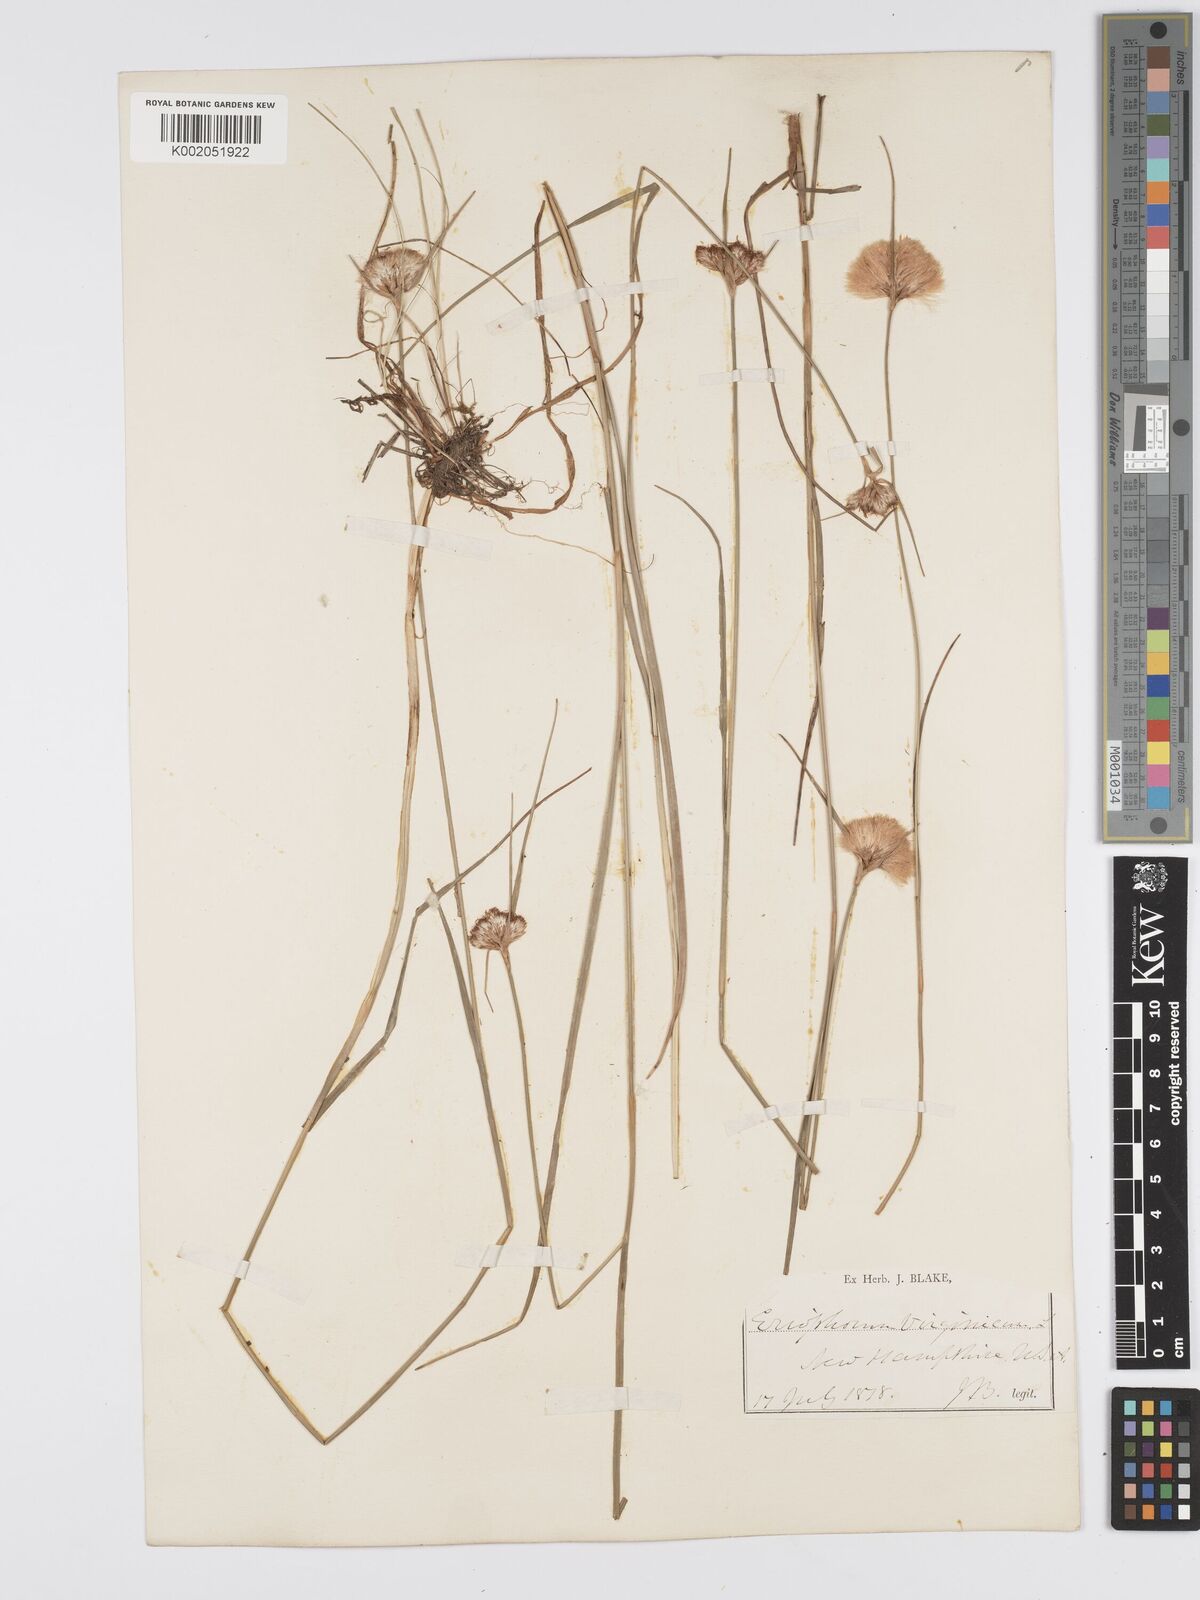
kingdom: Plantae
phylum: Tracheophyta
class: Liliopsida
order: Poales
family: Cyperaceae
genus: Eriophorum
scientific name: Eriophorum virginicum
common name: Tawny cottongrass
